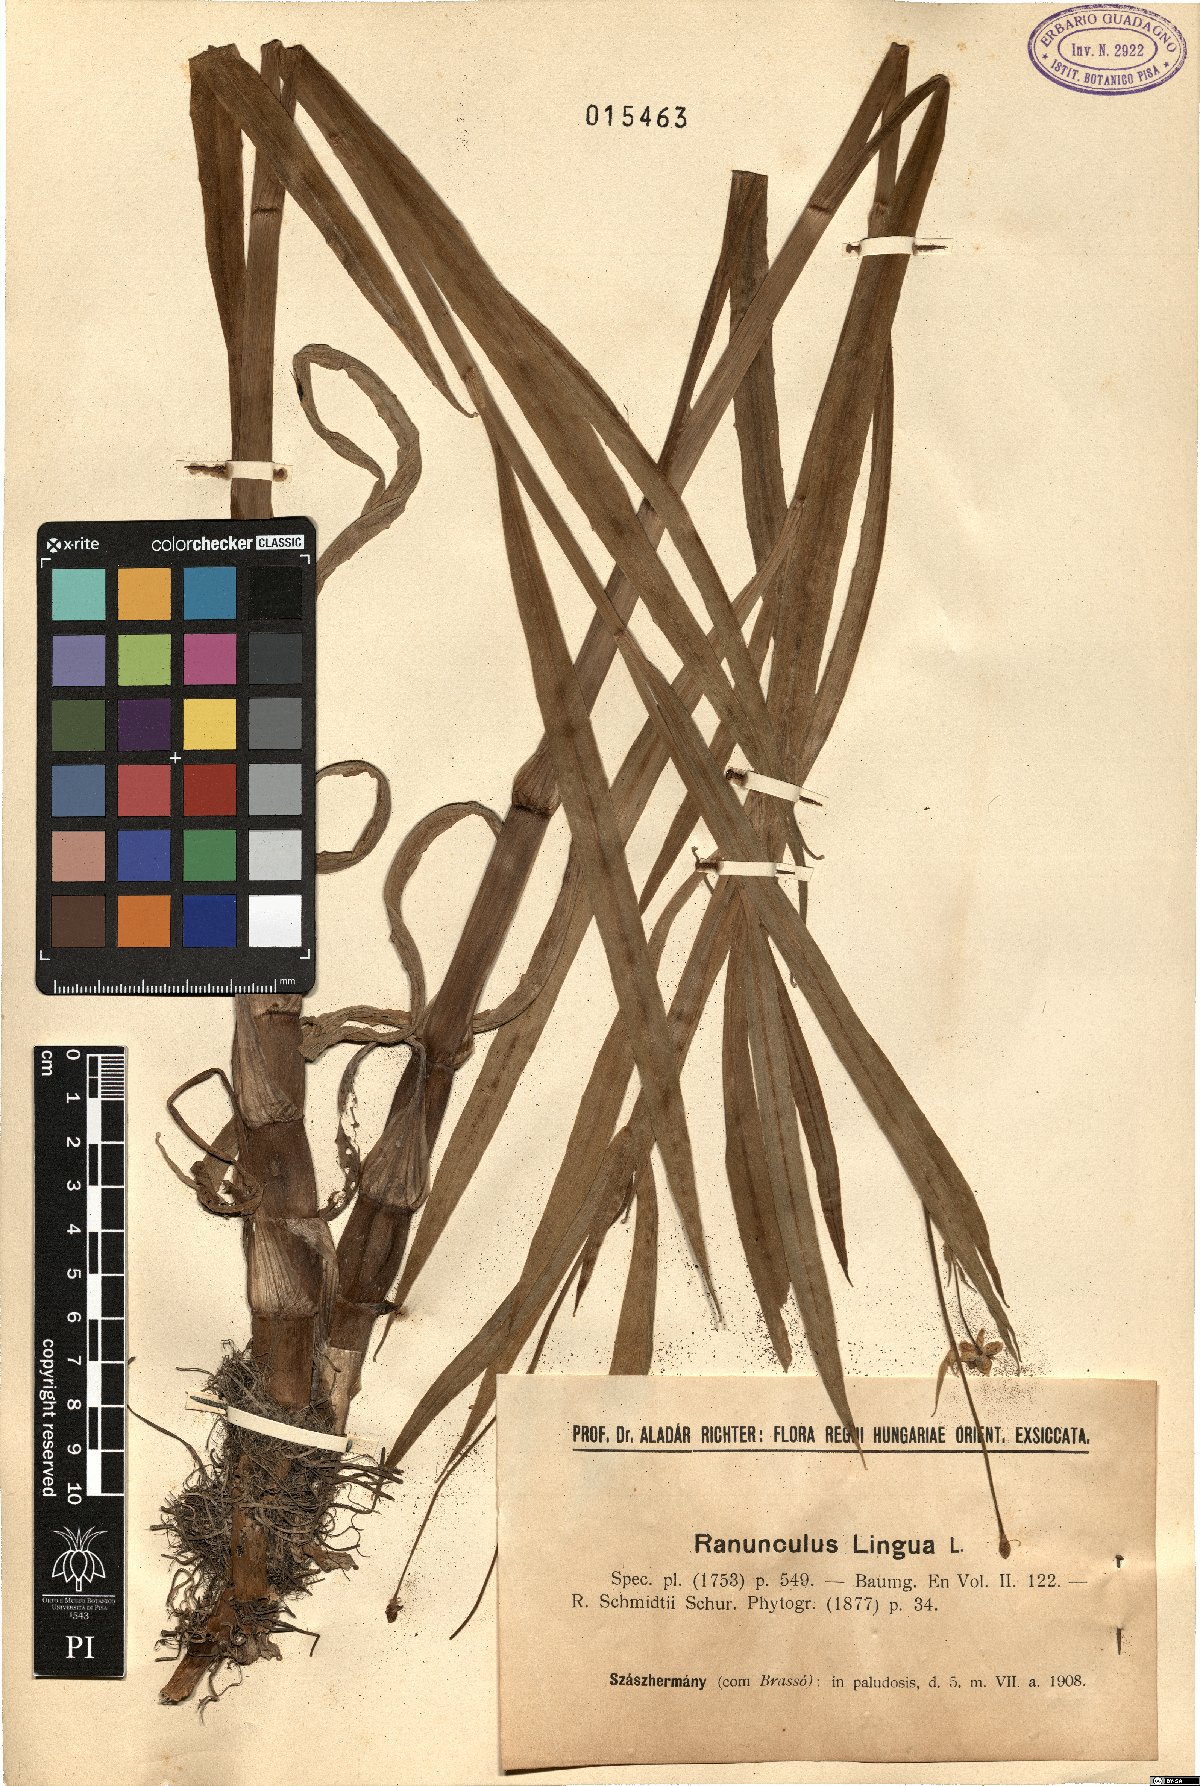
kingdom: Plantae
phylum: Tracheophyta
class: Magnoliopsida
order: Ranunculales
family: Ranunculaceae
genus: Ranunculus
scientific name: Ranunculus lingua
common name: Greater spearwort
